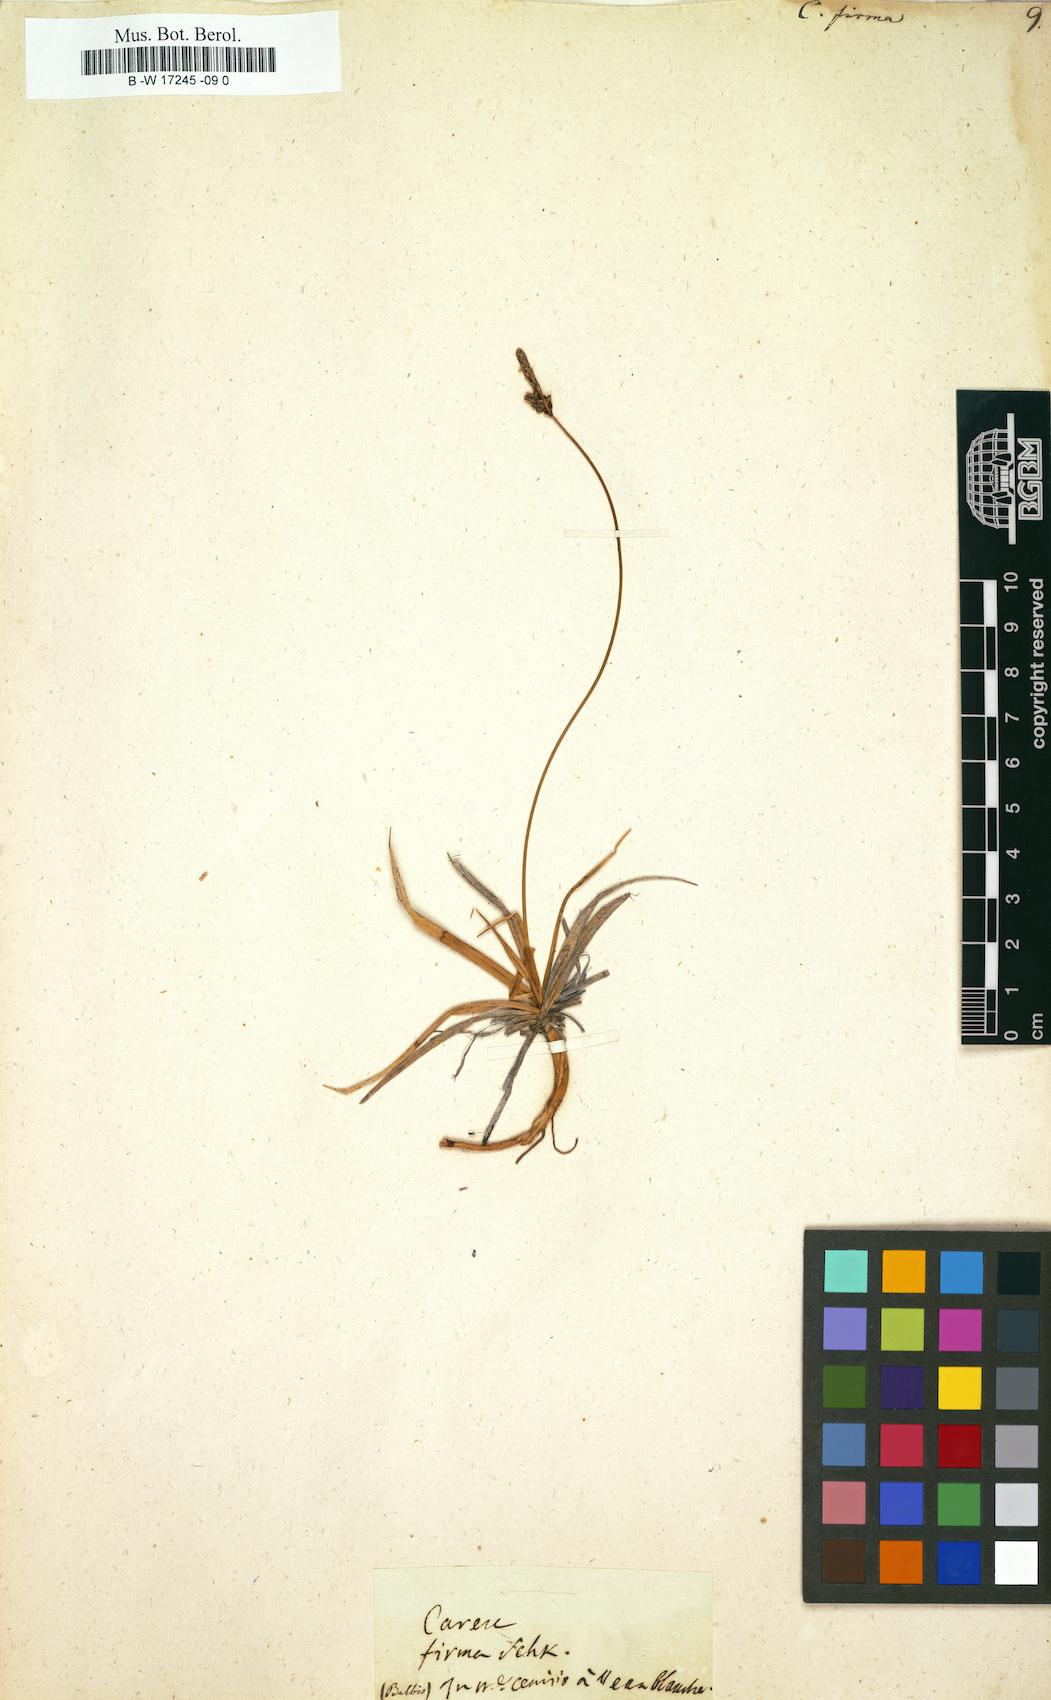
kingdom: Plantae
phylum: Tracheophyta
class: Liliopsida
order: Poales
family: Cyperaceae
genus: Carex
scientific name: Carex firma
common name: Dwarf pillow sedge
